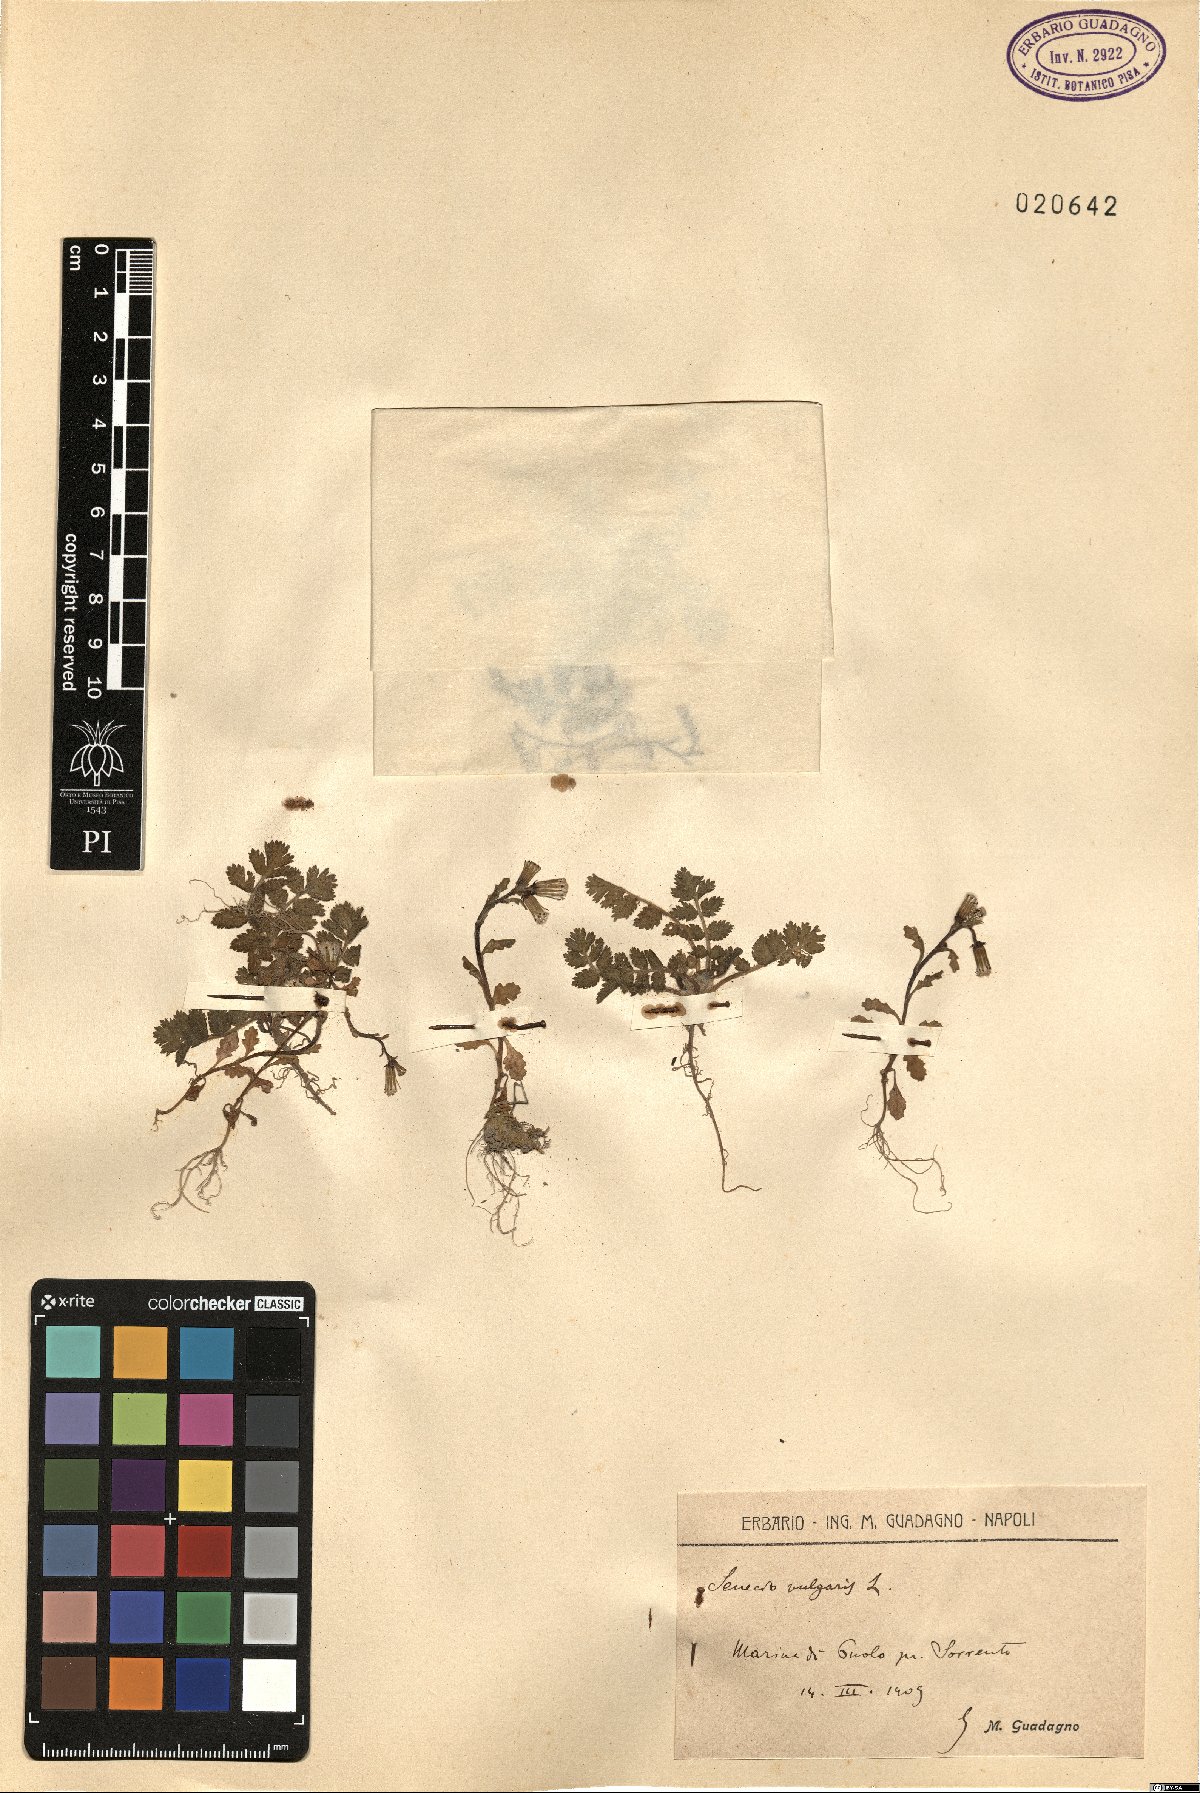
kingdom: Plantae
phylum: Tracheophyta
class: Magnoliopsida
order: Asterales
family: Asteraceae
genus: Senecio
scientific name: Senecio vulgaris
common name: Old-man-in-the-spring
